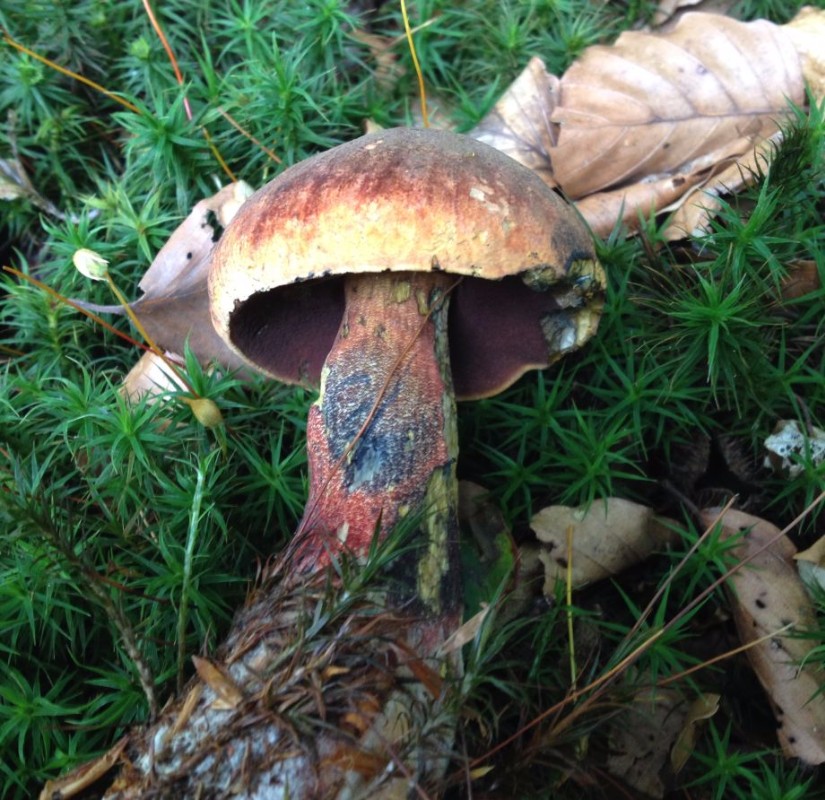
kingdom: Fungi
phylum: Basidiomycota
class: Agaricomycetes
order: Boletales
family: Boletaceae
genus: Neoboletus
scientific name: Neoboletus erythropus
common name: punktstokket indigorørhat
